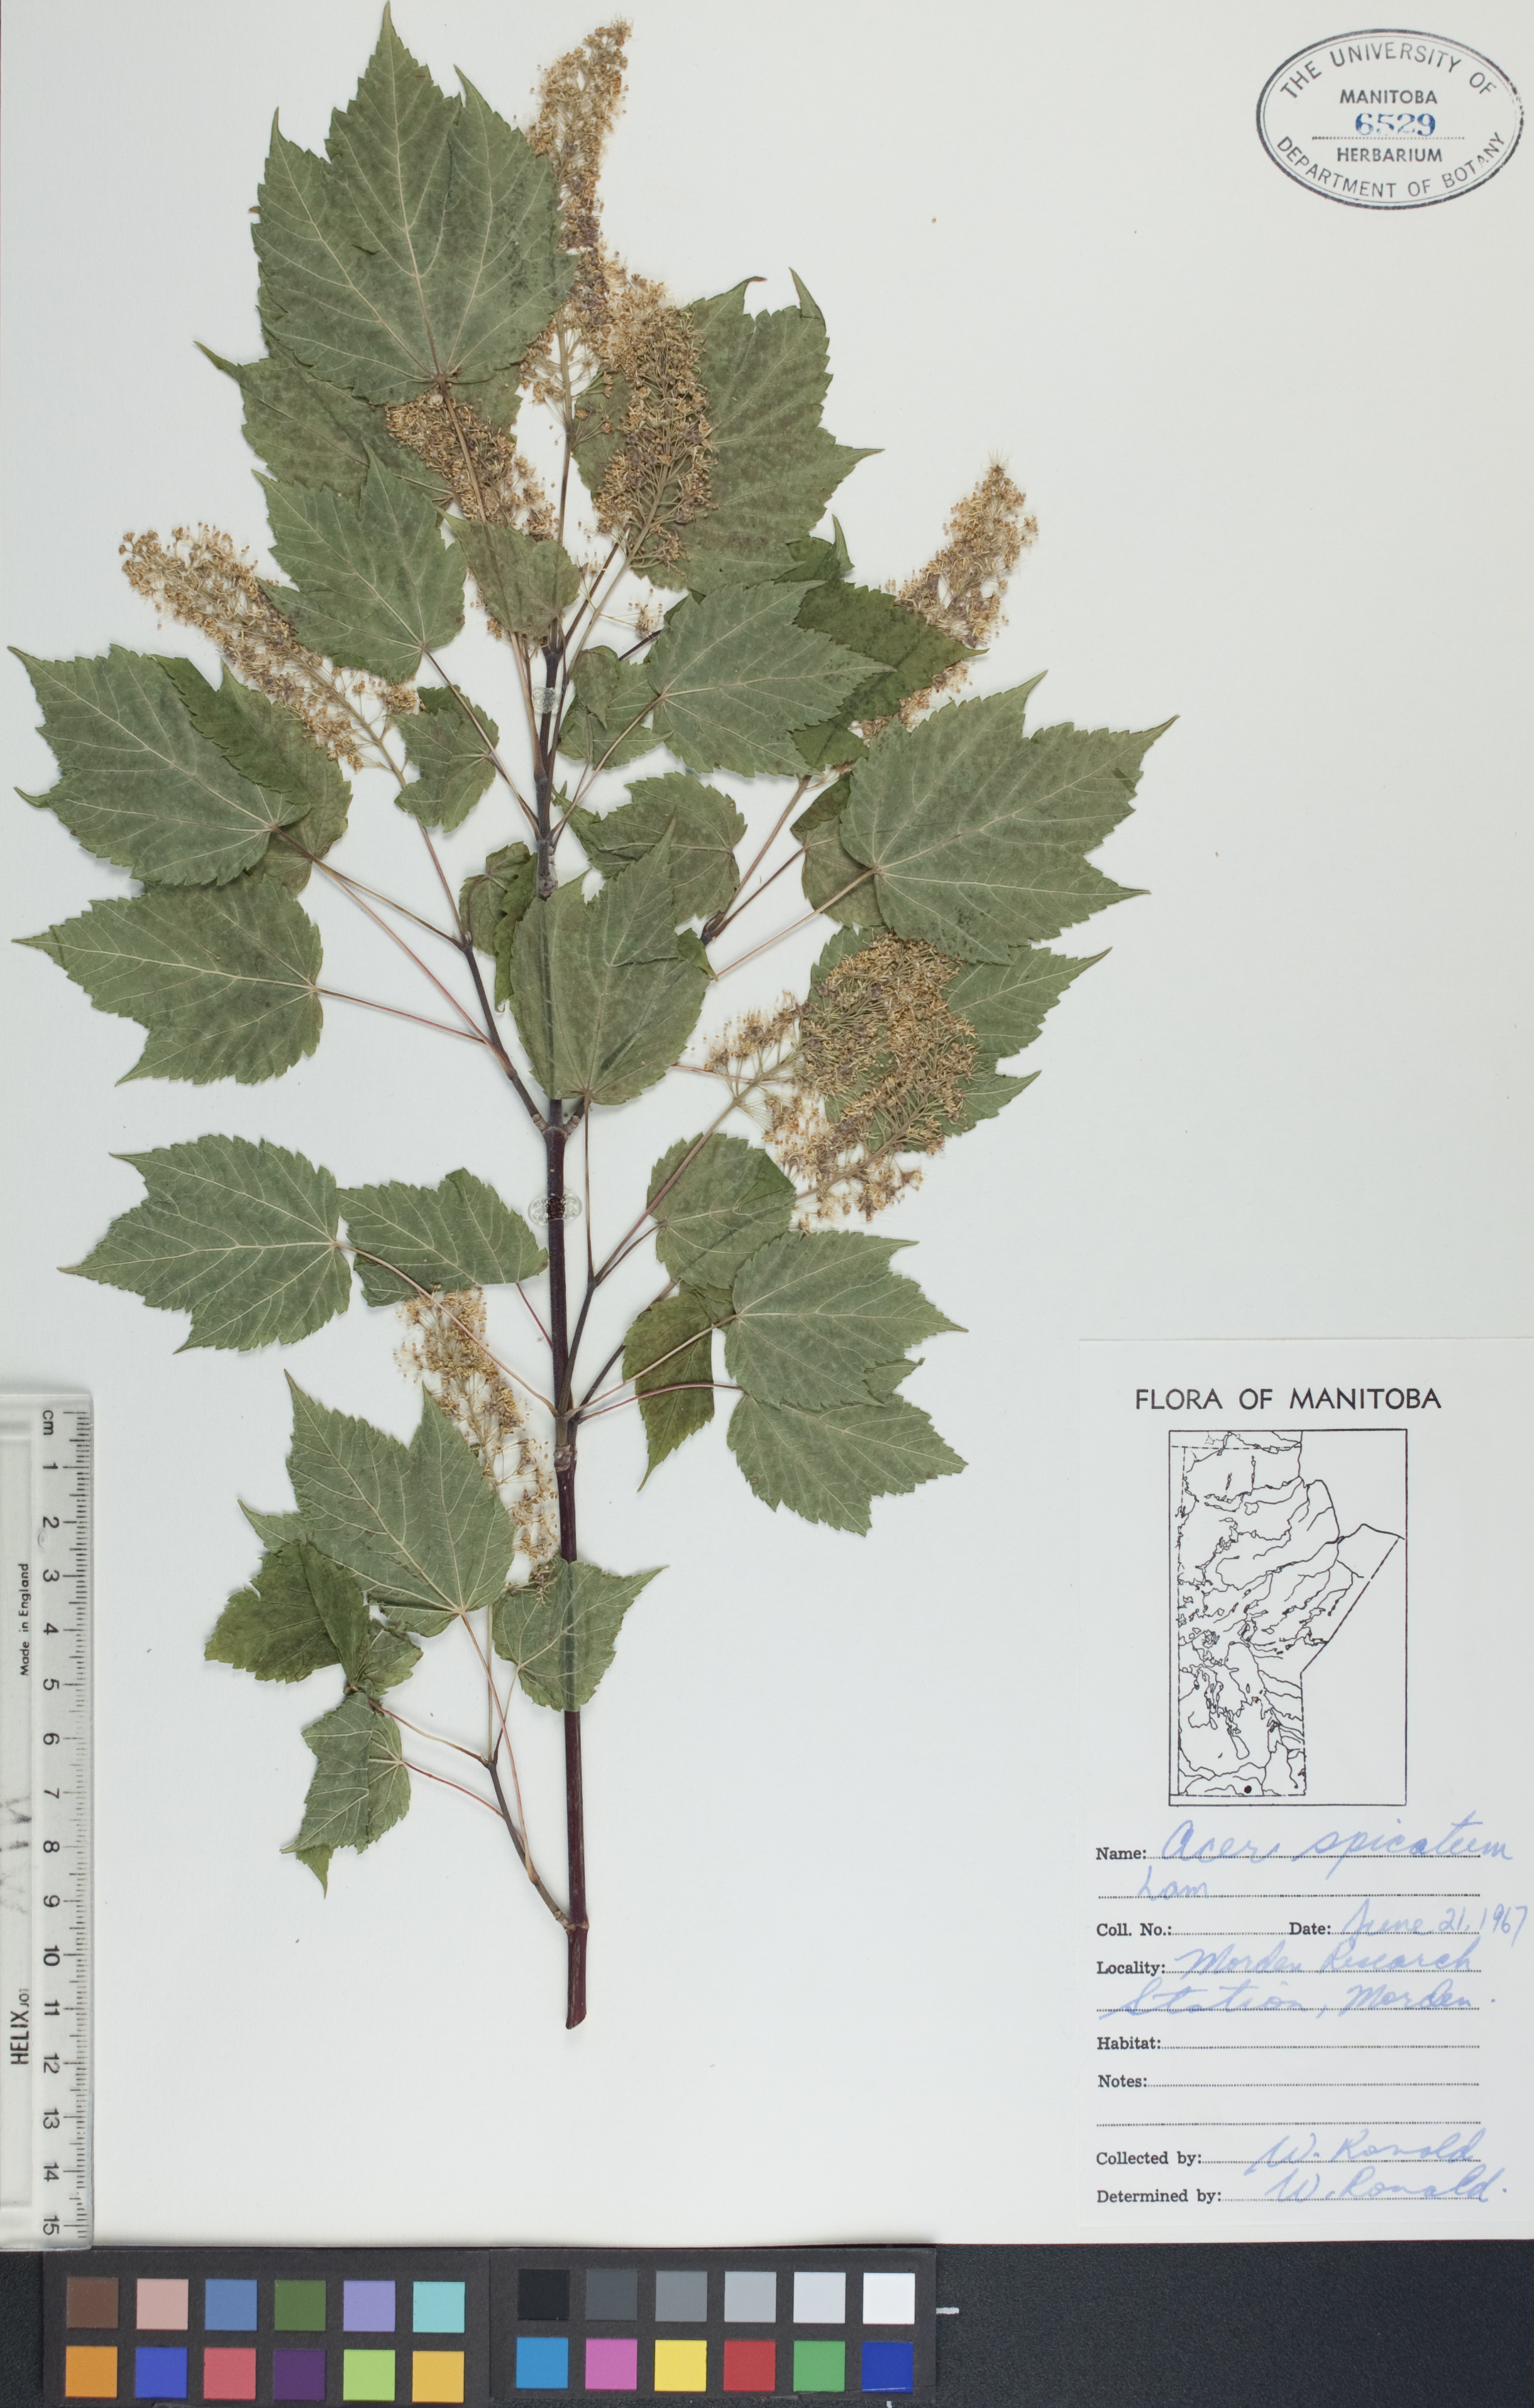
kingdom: Plantae
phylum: Tracheophyta
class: Magnoliopsida
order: Sapindales
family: Sapindaceae
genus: Acer
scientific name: Acer spicatum
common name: Mountain maple
